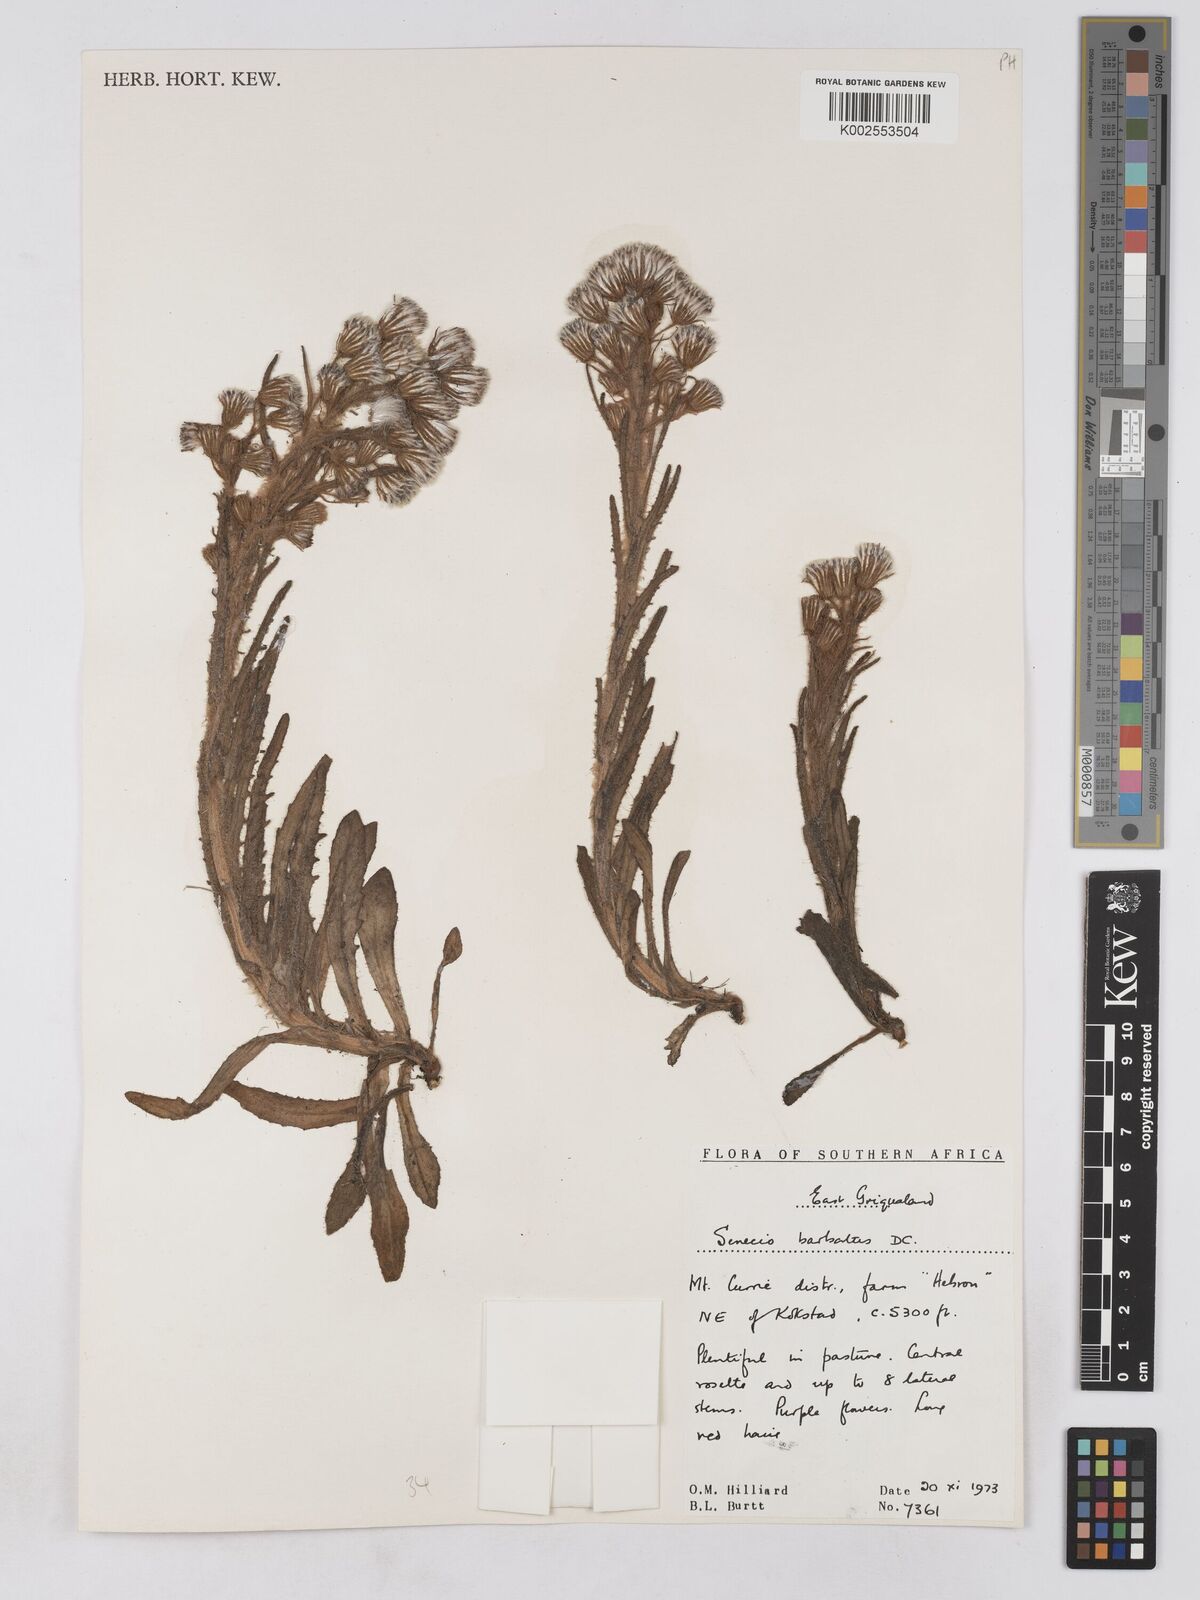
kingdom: Plantae
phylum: Tracheophyta
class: Magnoliopsida
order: Asterales
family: Asteraceae
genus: Senecio
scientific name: Senecio barbatus
